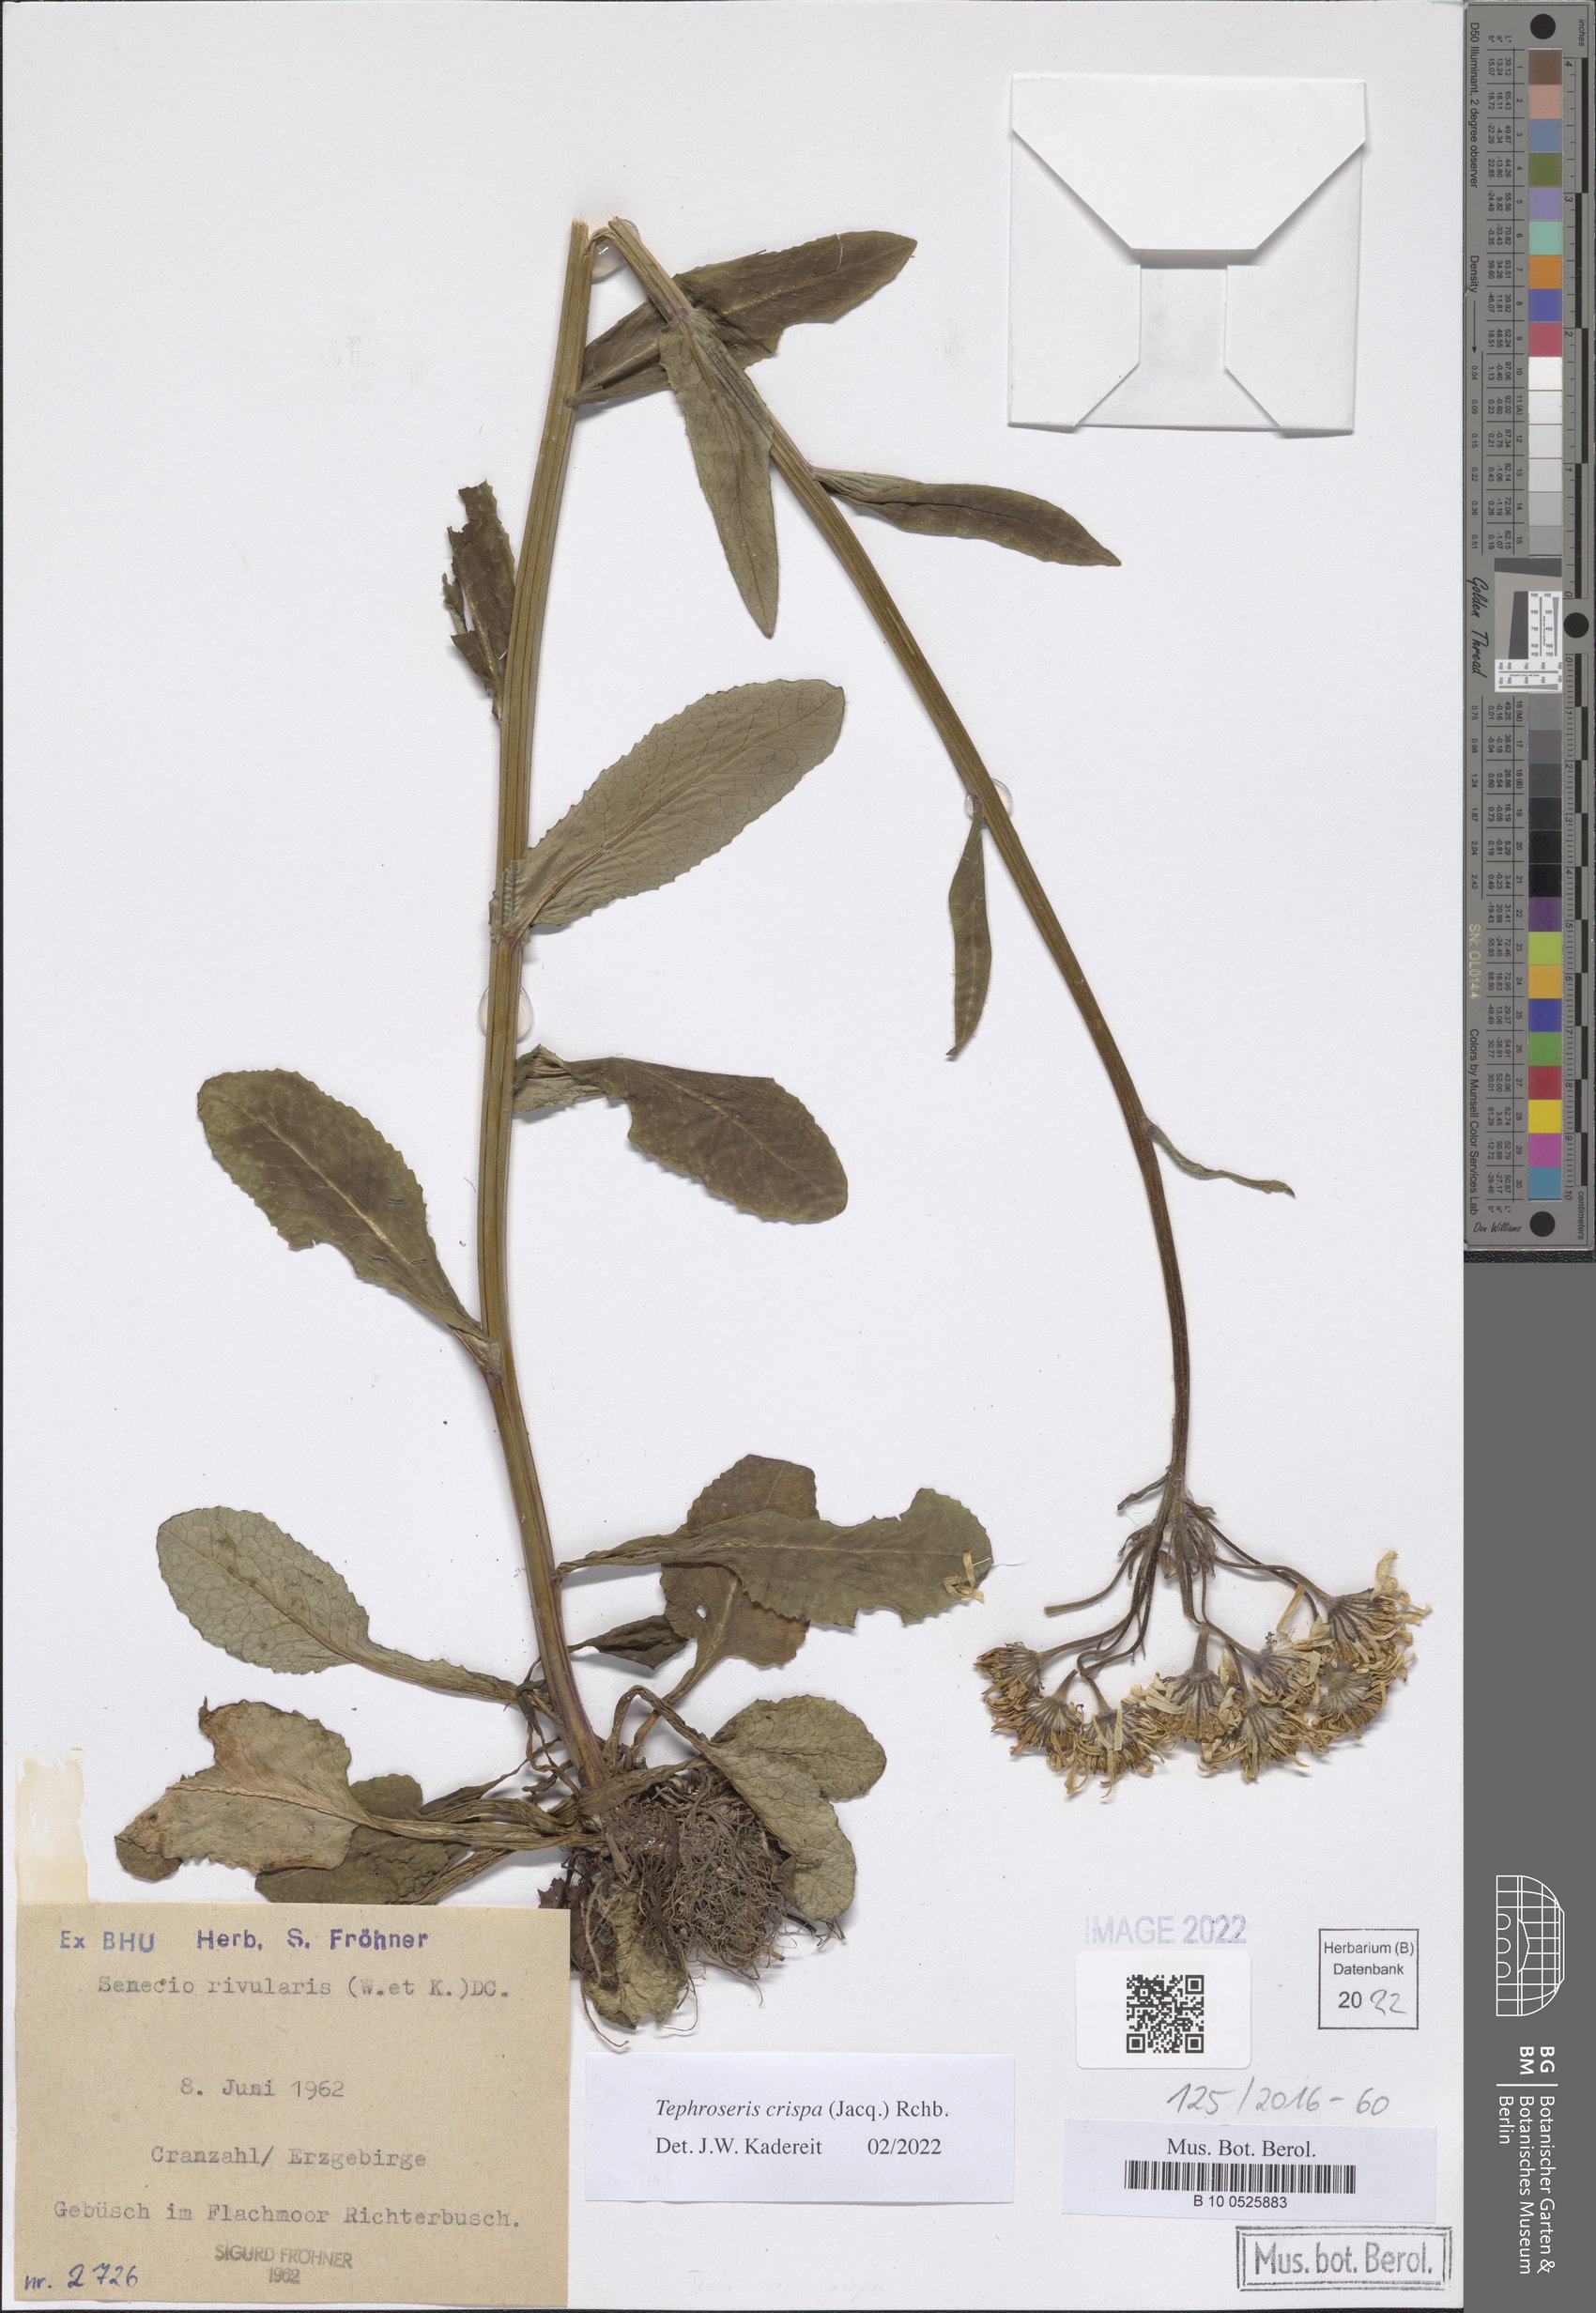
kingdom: Plantae
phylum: Tracheophyta
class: Magnoliopsida
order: Asterales
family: Asteraceae
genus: Tephroseris
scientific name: Tephroseris crispa
